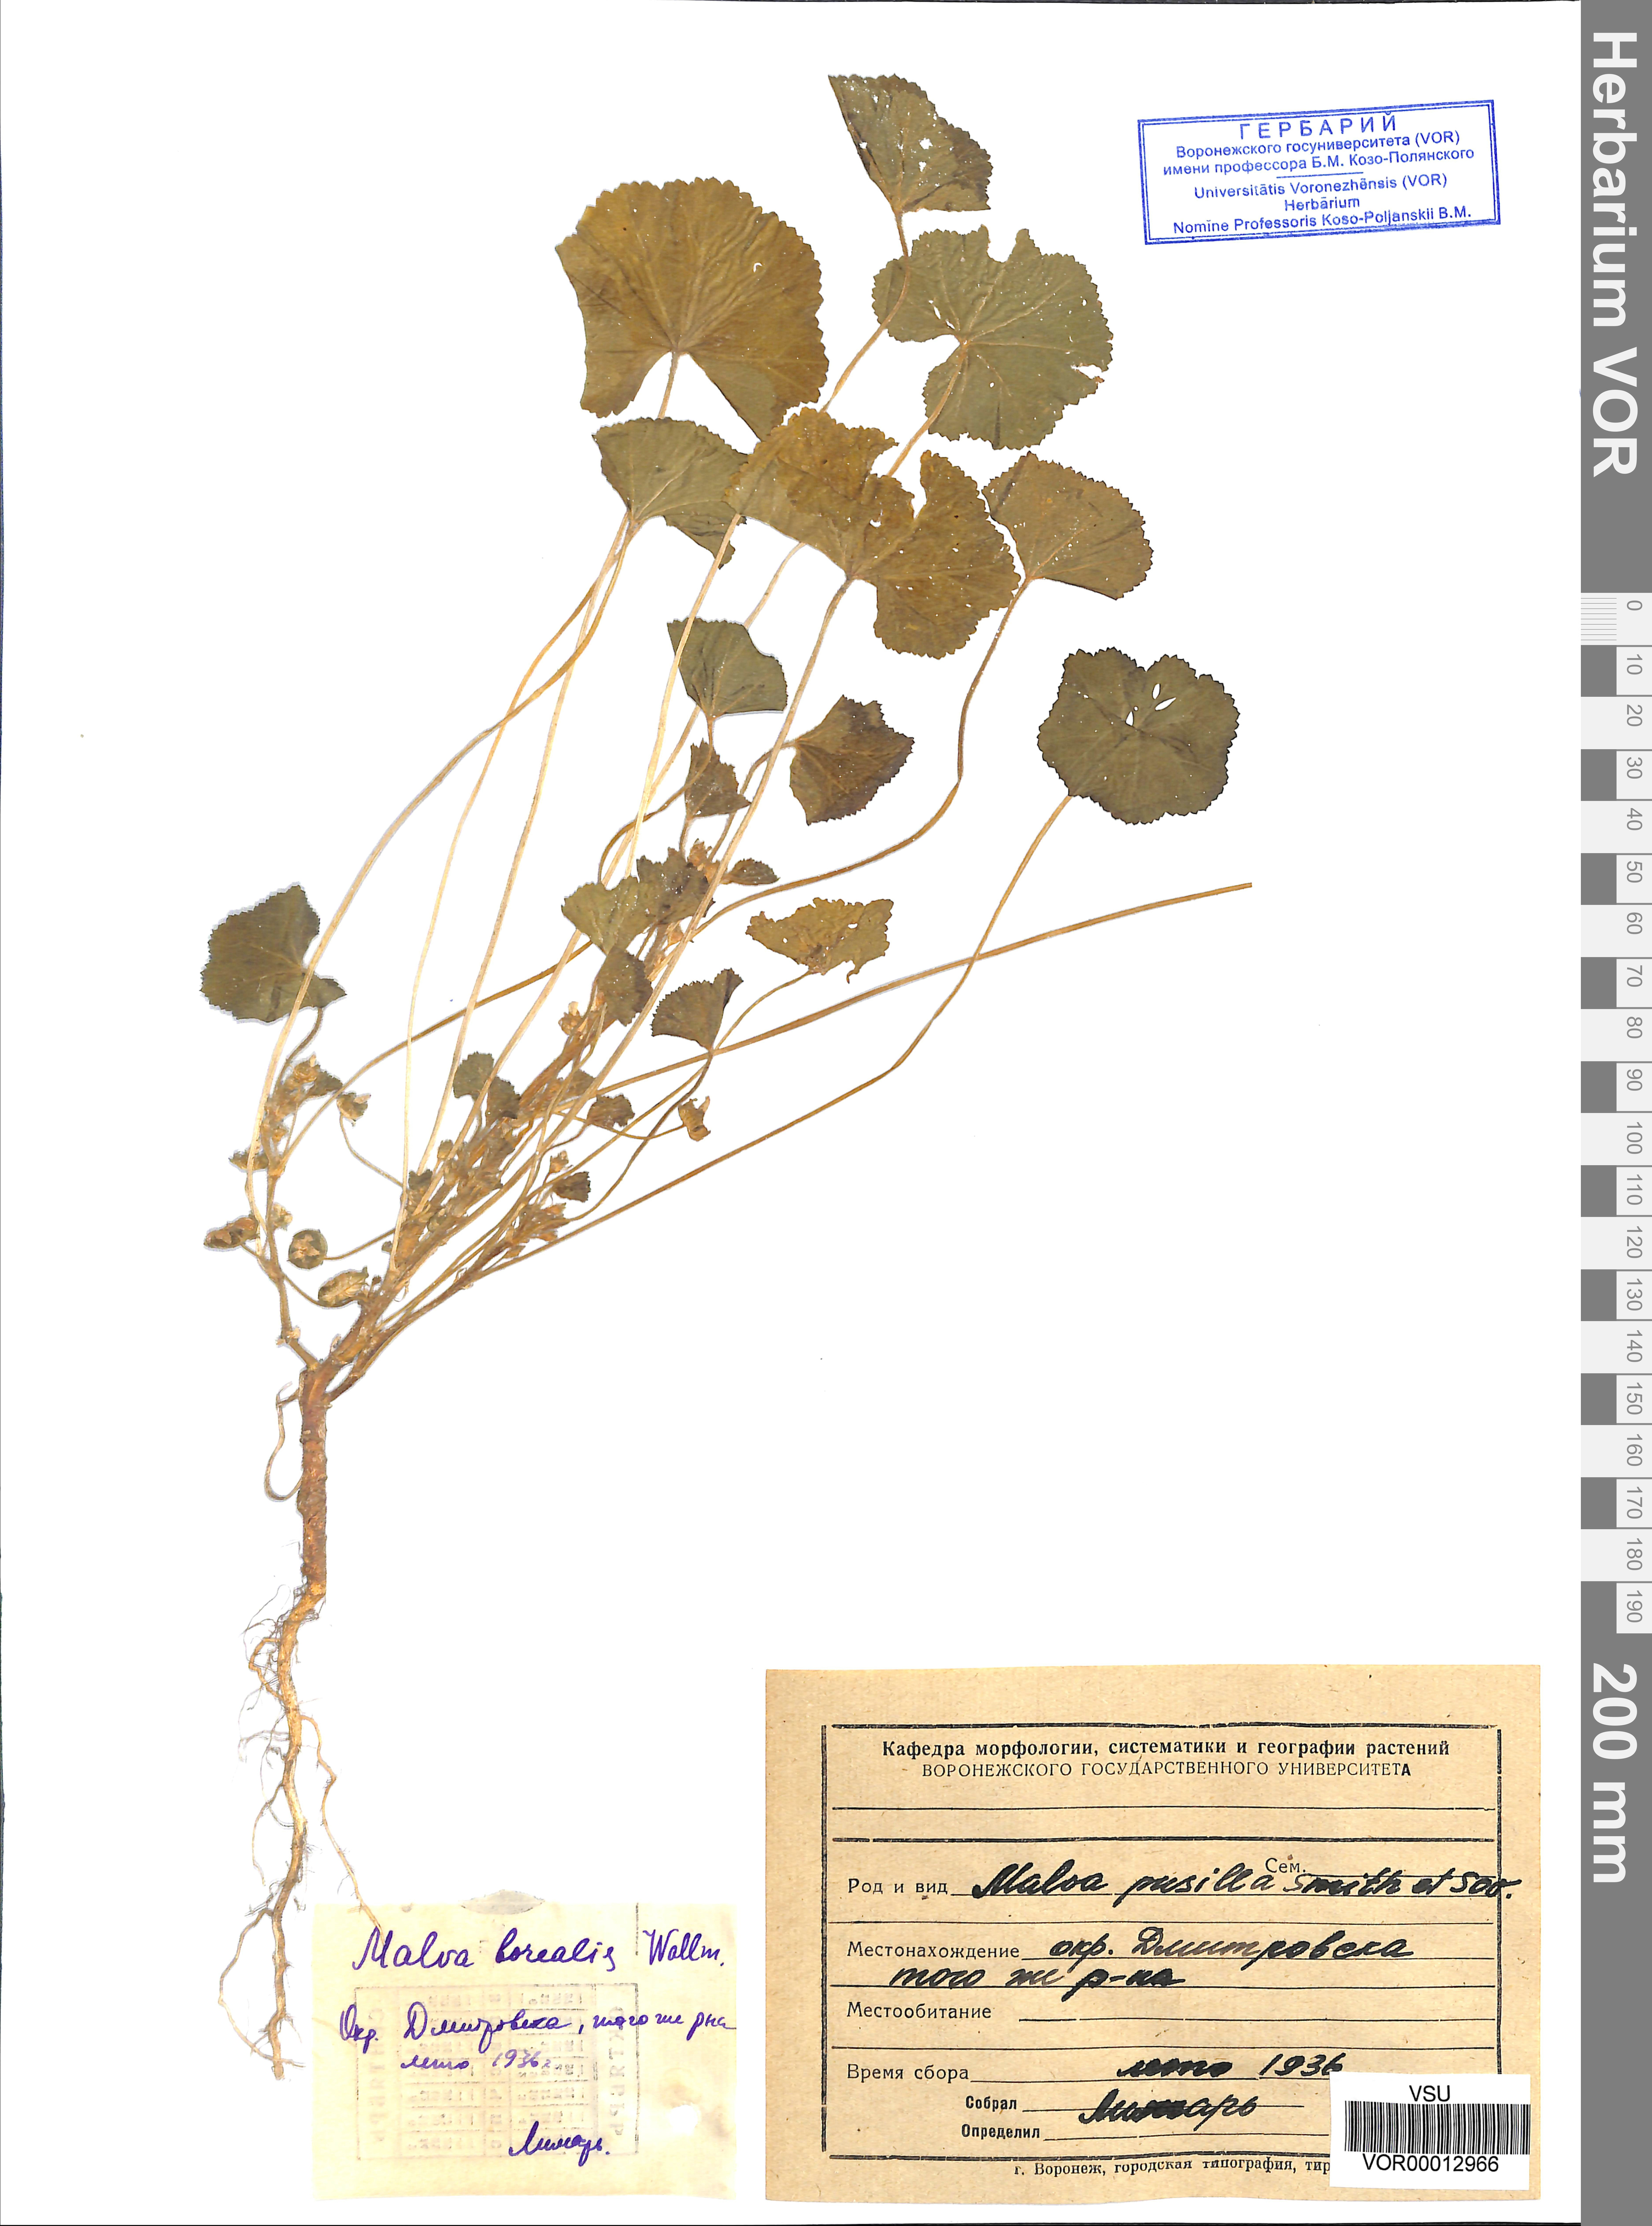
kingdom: Plantae
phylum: Tracheophyta
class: Magnoliopsida
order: Malvales
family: Malvaceae
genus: Malva
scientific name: Malva pusilla
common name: Small mallow
